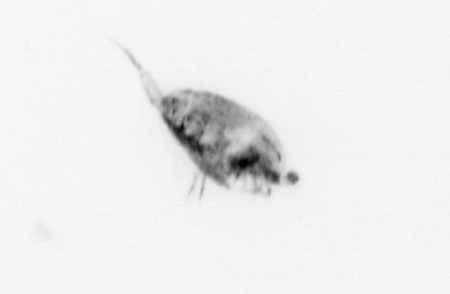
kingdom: Animalia
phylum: Arthropoda
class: Copepoda
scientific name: Copepoda
